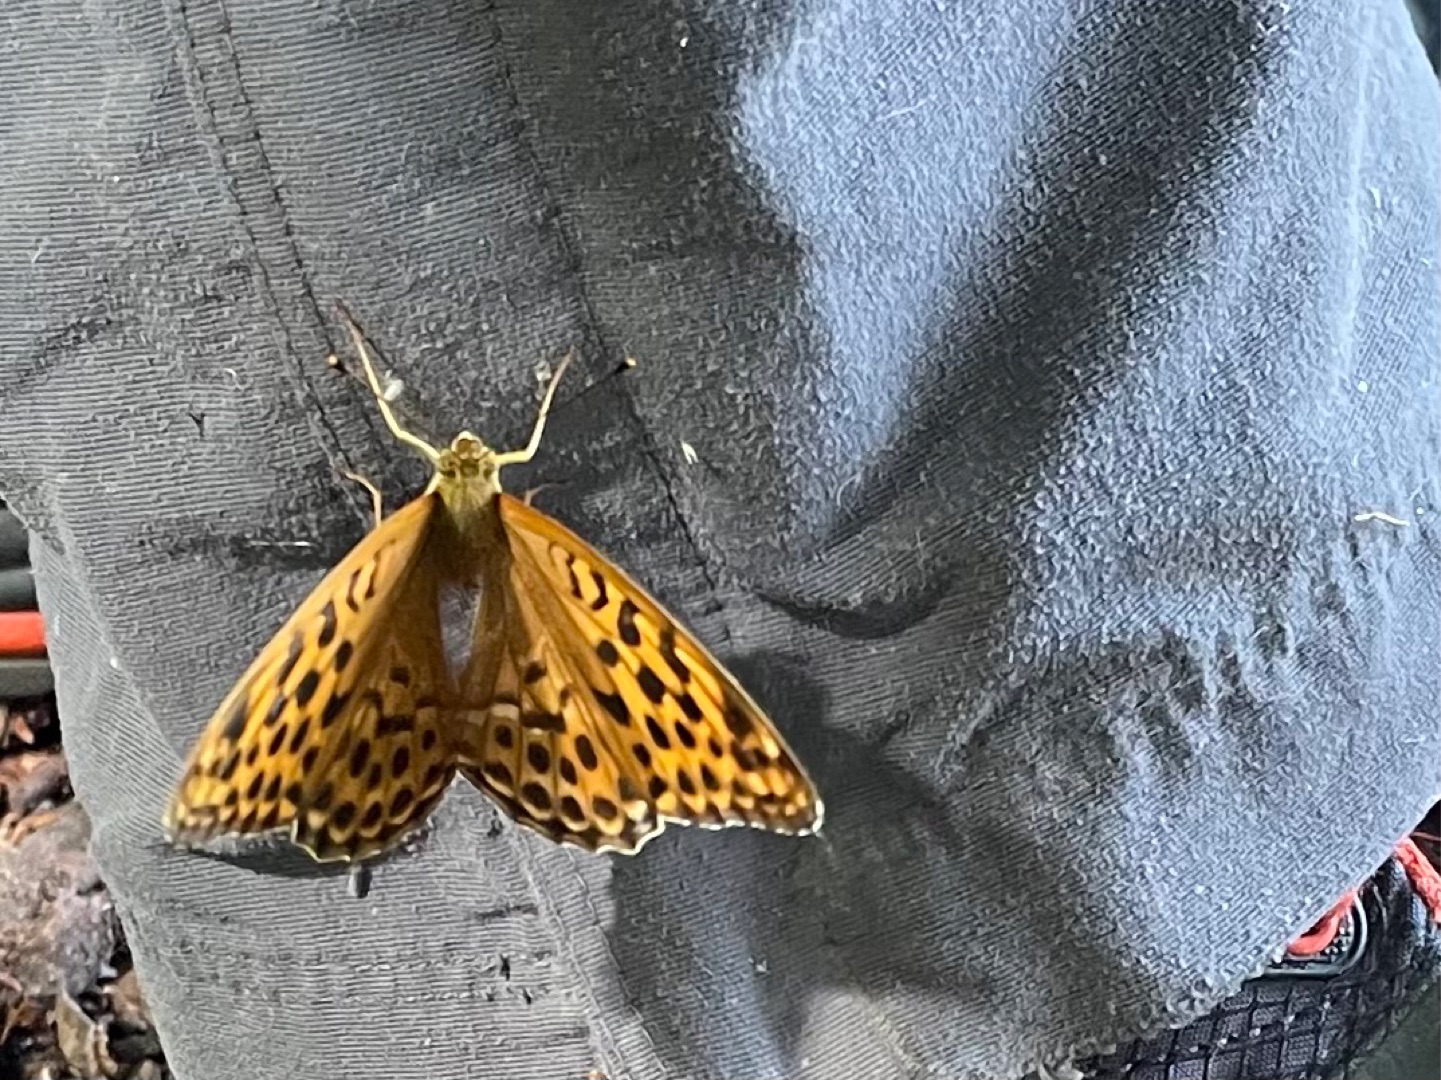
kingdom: Animalia
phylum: Arthropoda
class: Insecta
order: Lepidoptera
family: Nymphalidae
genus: Argynnis
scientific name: Argynnis paphia
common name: Kejserkåbe
